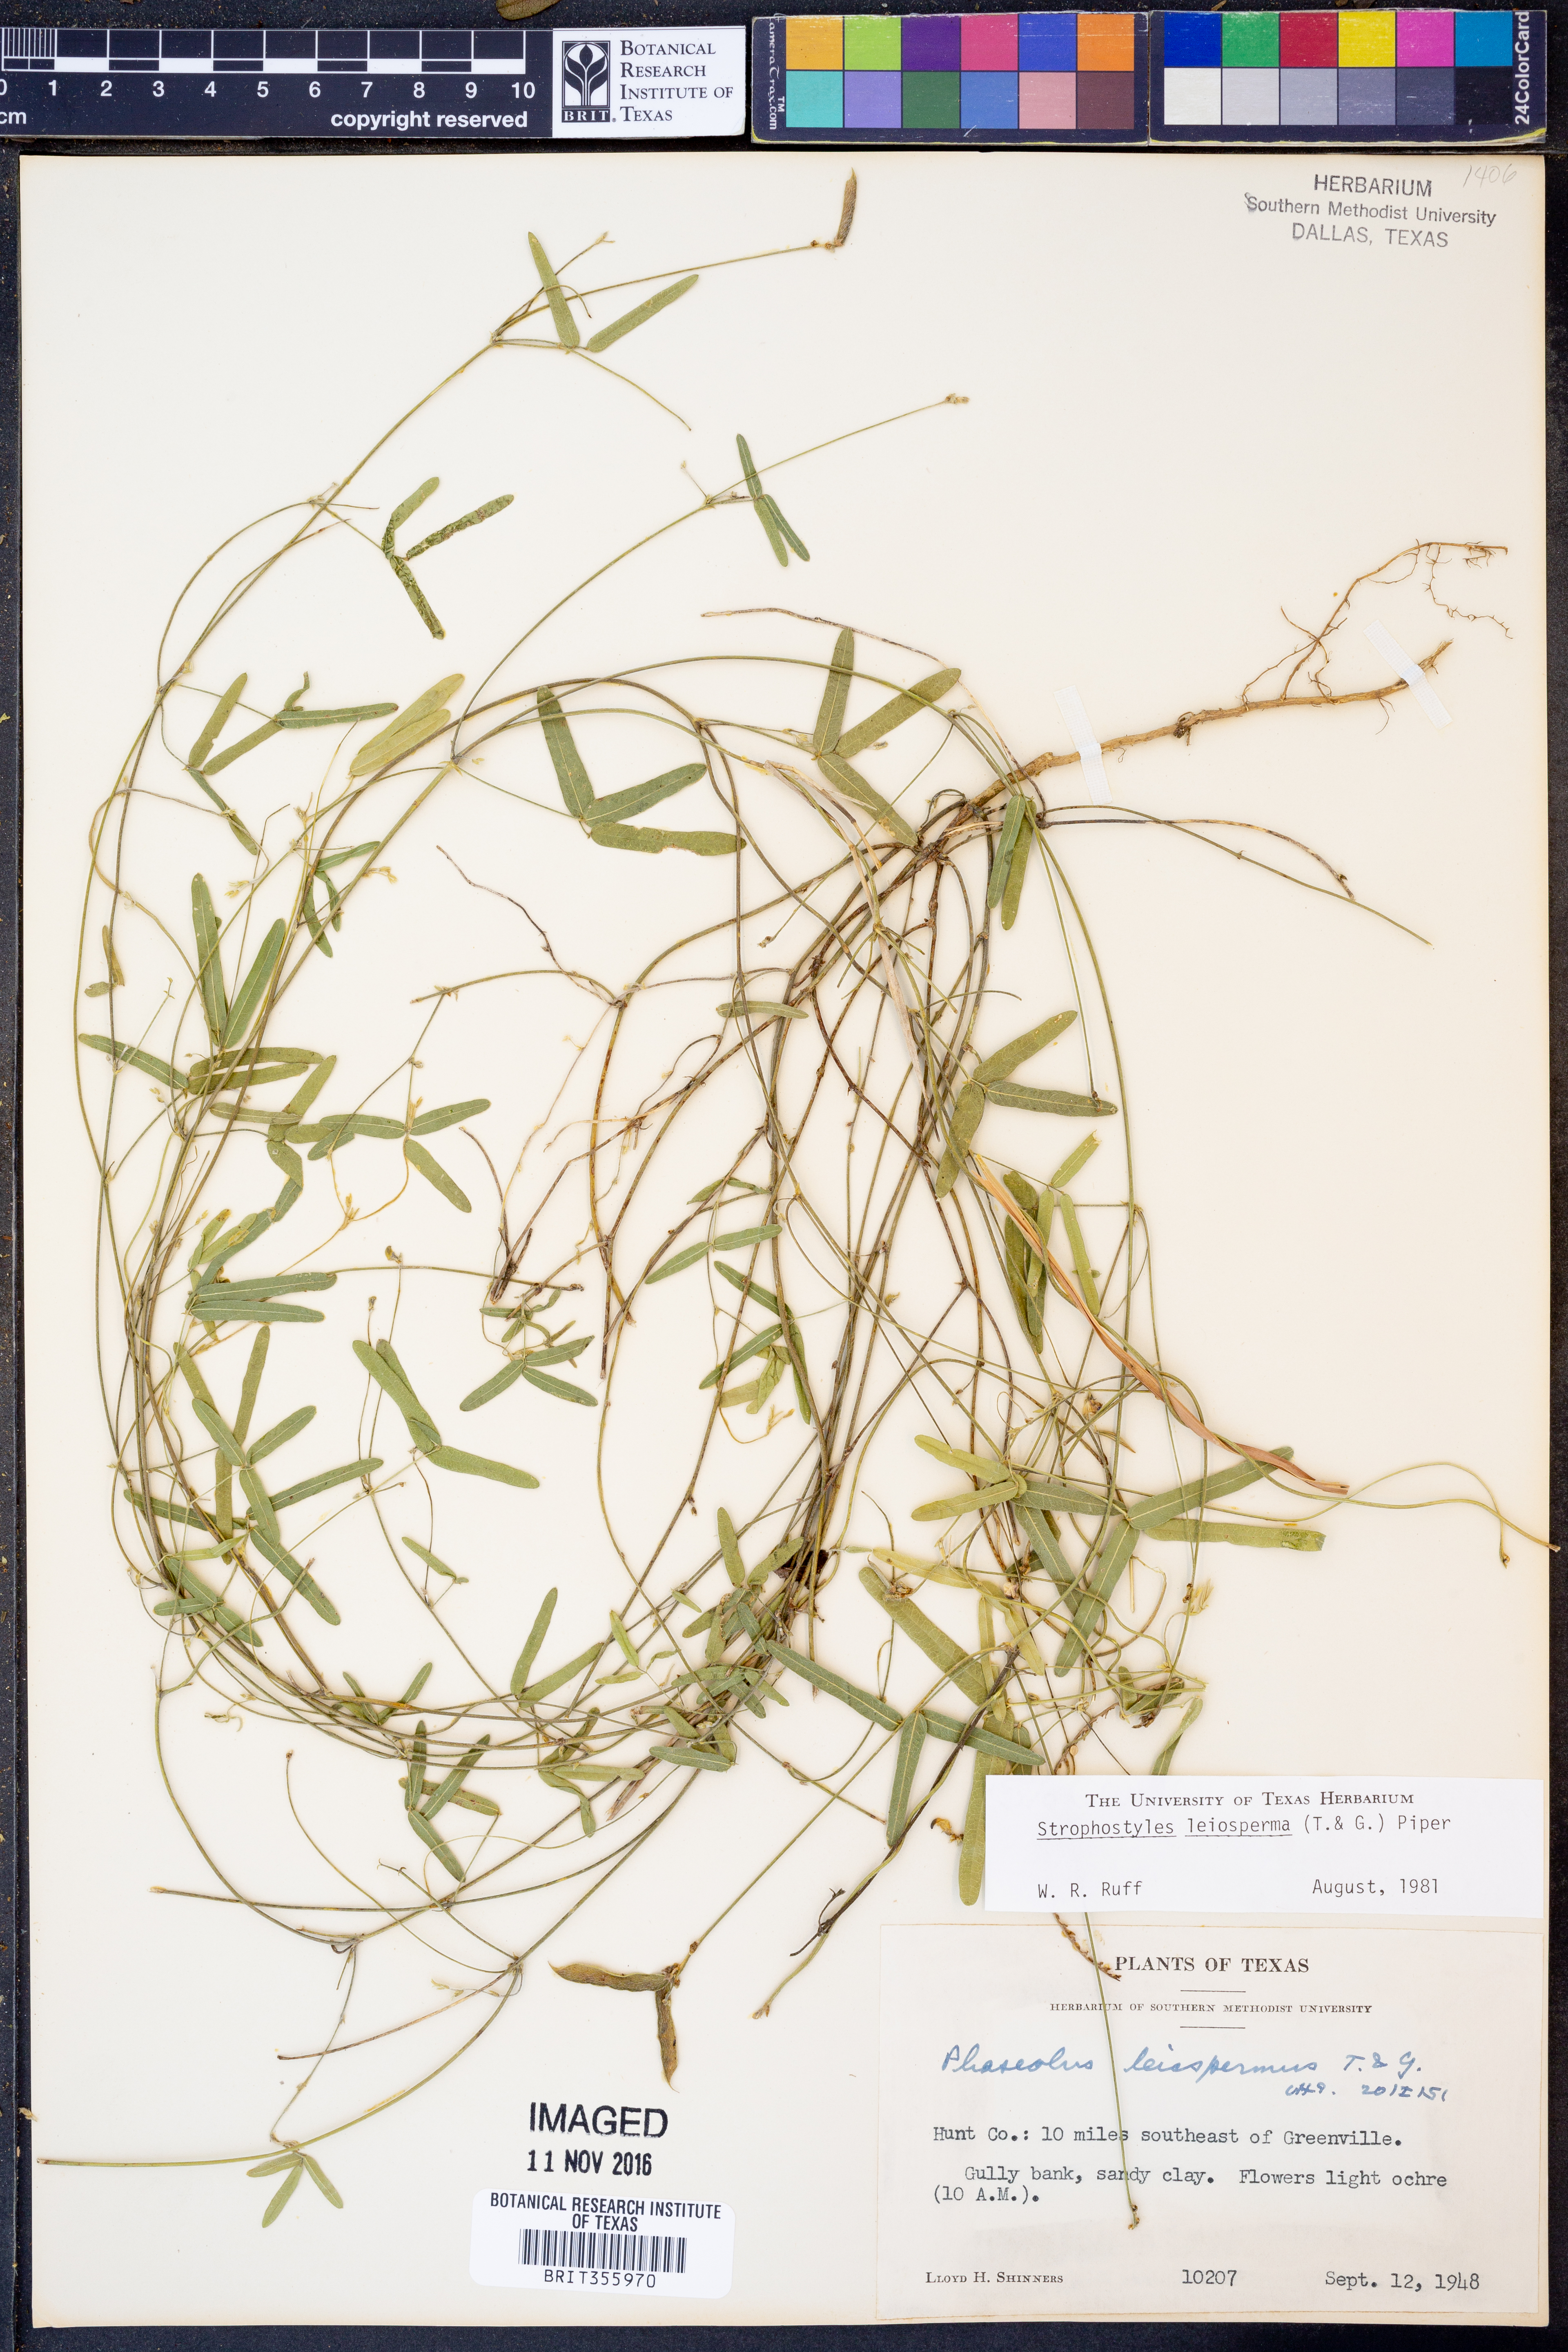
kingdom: Plantae
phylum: Tracheophyta
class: Magnoliopsida
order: Fabales
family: Fabaceae
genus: Strophostyles
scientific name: Strophostyles leiosperma
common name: Smooth-seed wild bean
